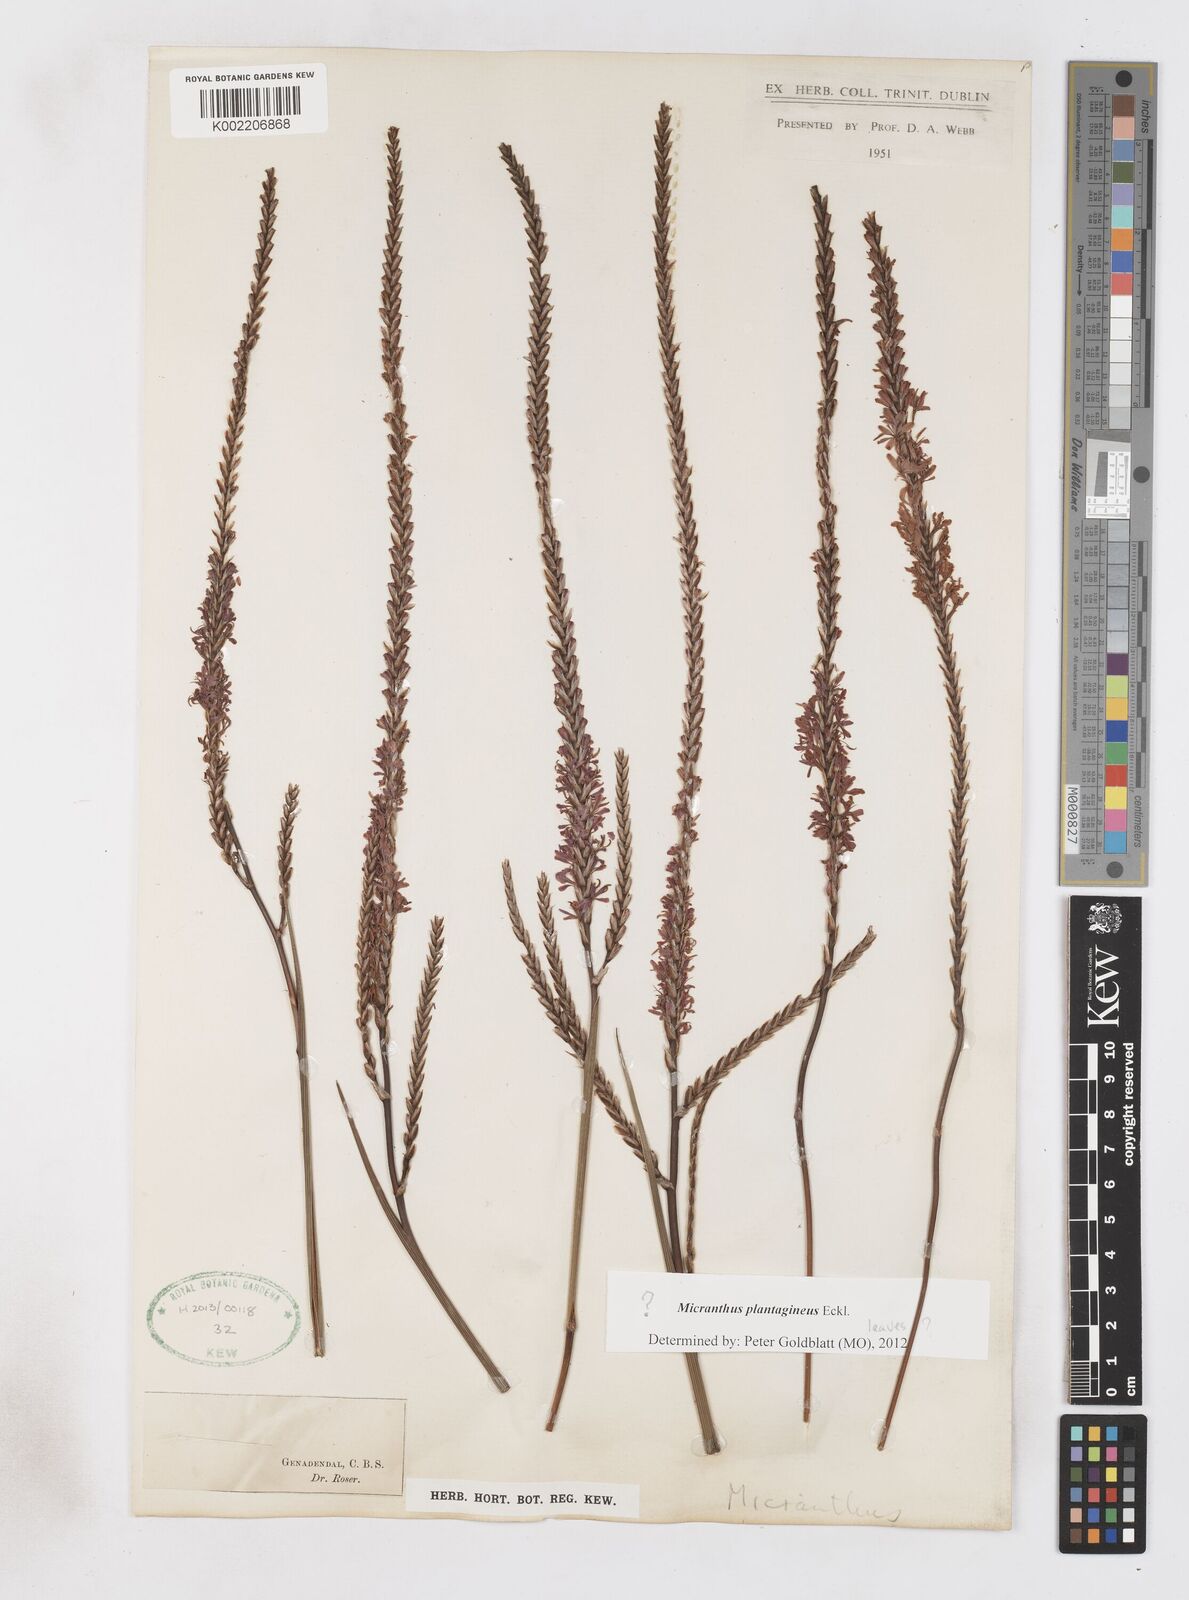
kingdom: Plantae
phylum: Tracheophyta
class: Liliopsida
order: Asparagales
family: Iridaceae
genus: Micranthus
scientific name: Micranthus plantagineus
